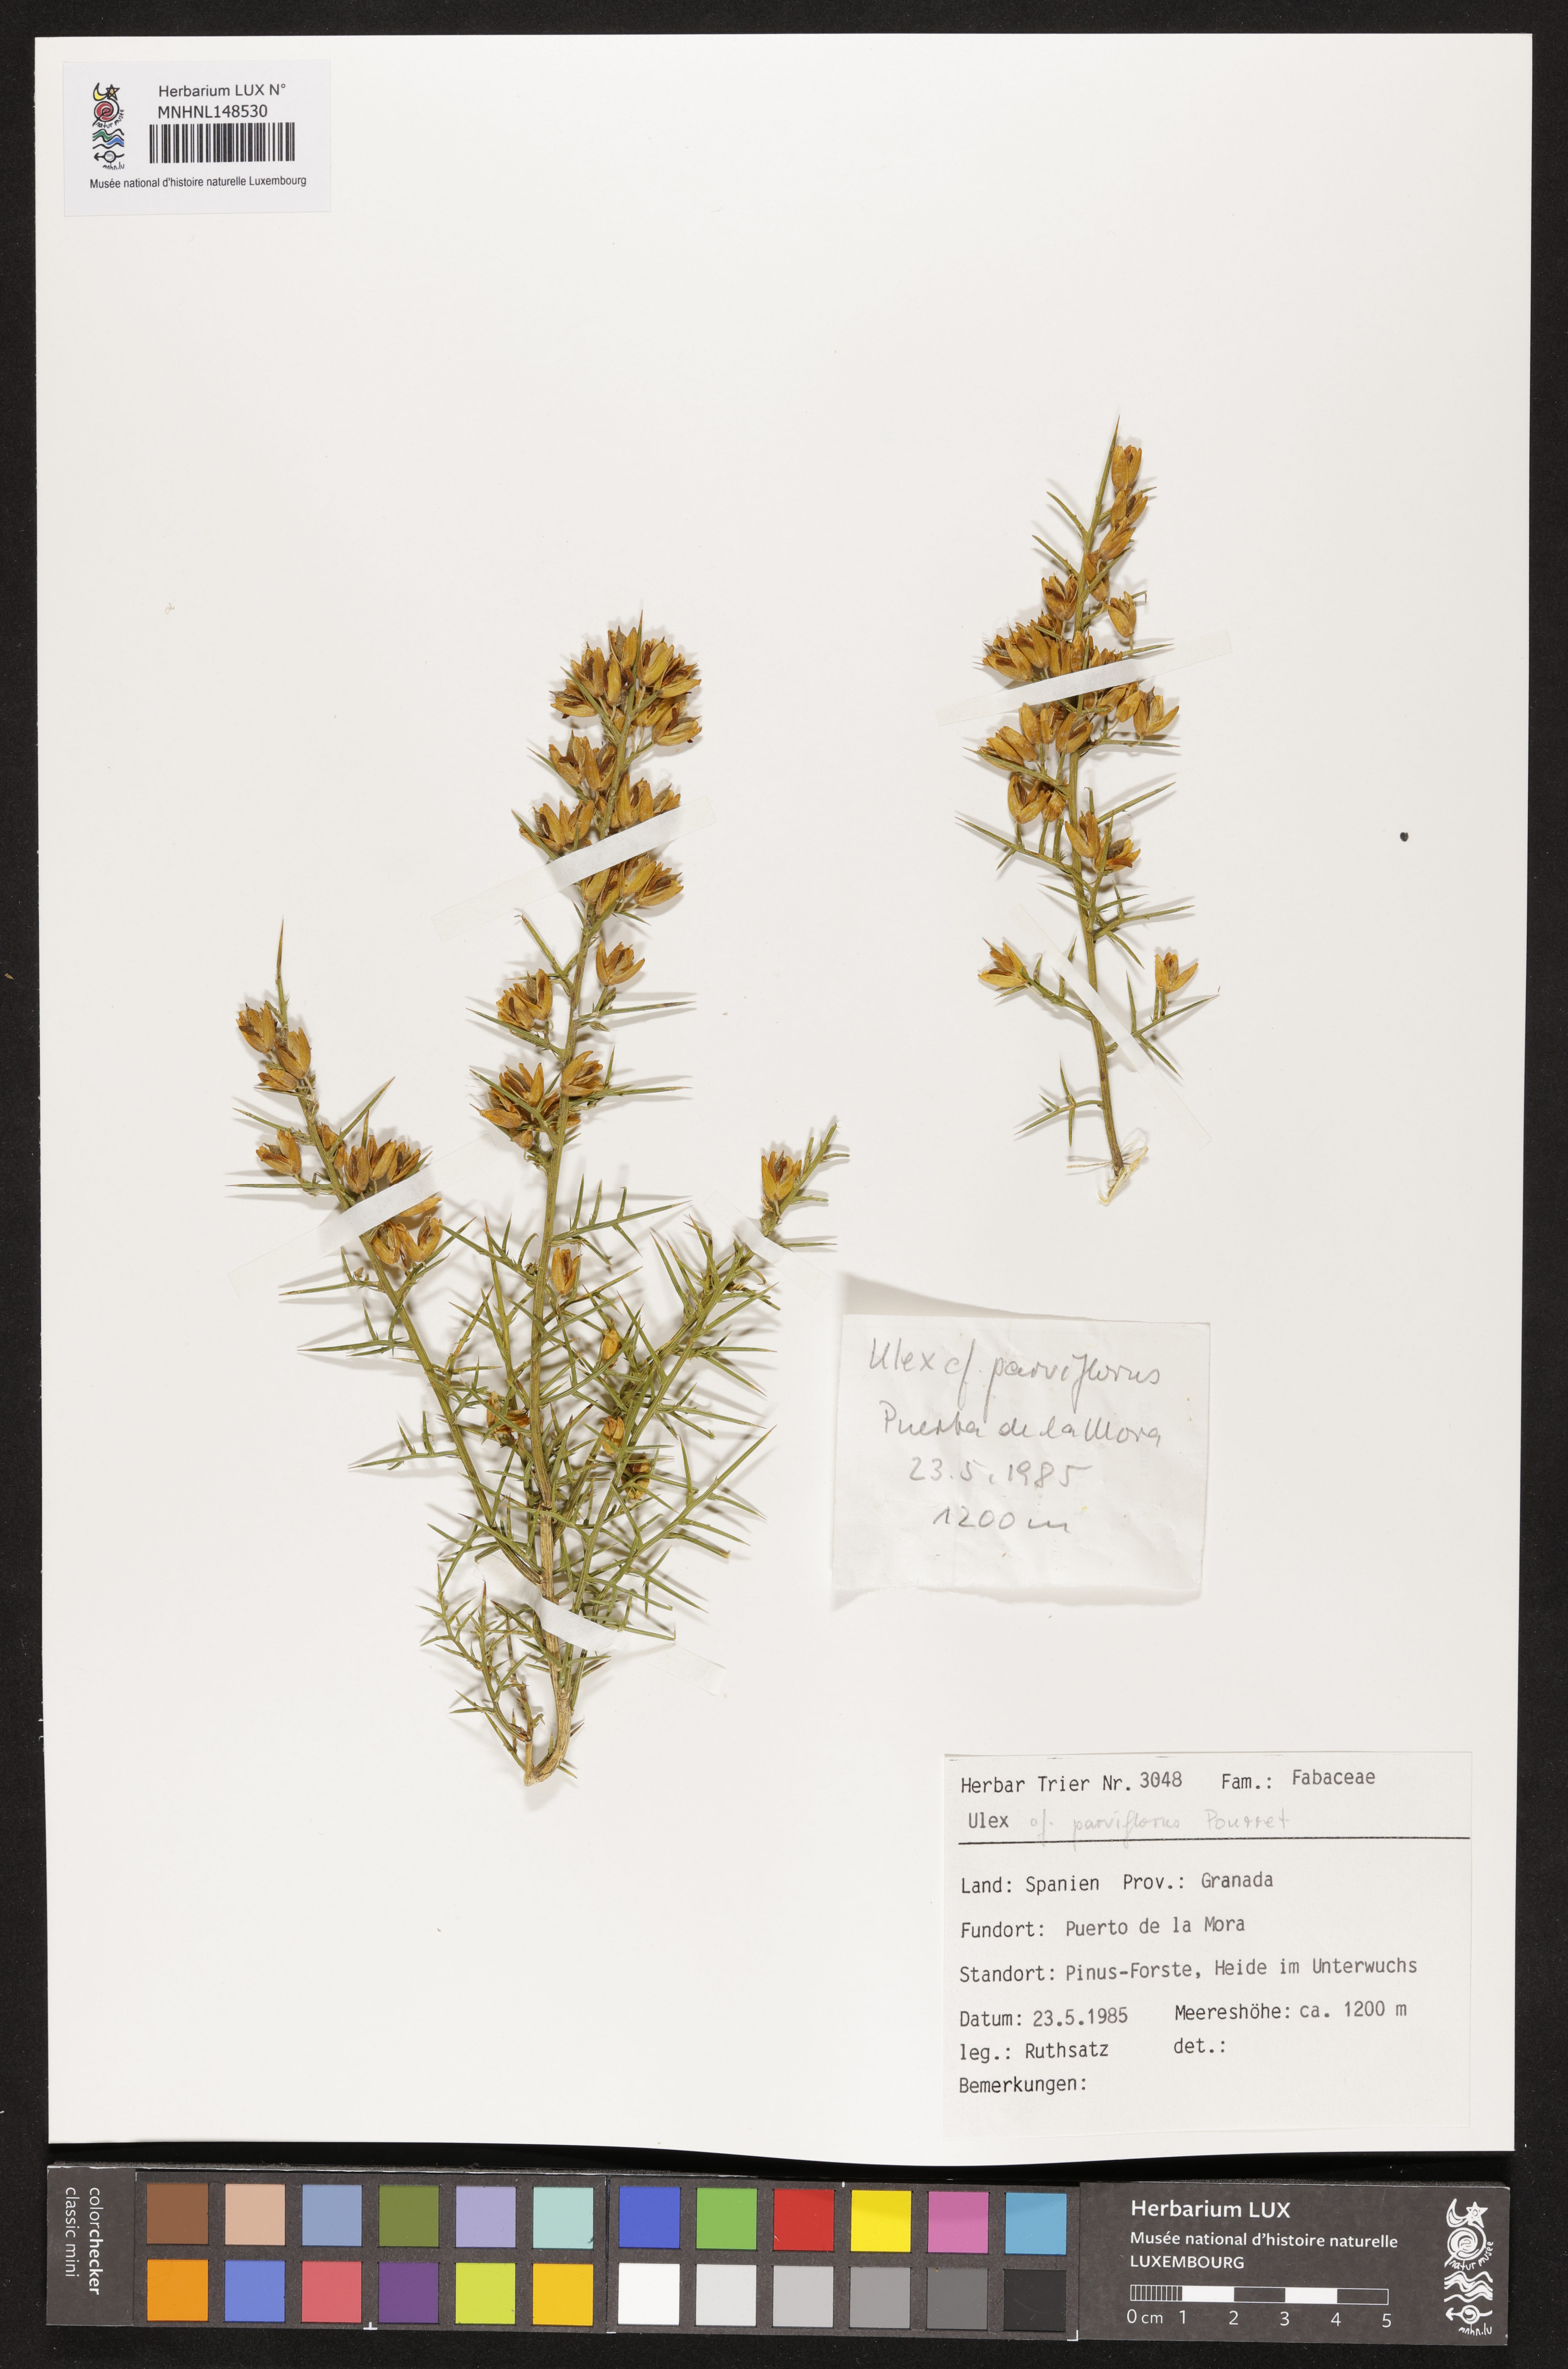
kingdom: Plantae
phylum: Tracheophyta
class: Magnoliopsida
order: Fabales
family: Fabaceae
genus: Ulex
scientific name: Ulex parviflorus
